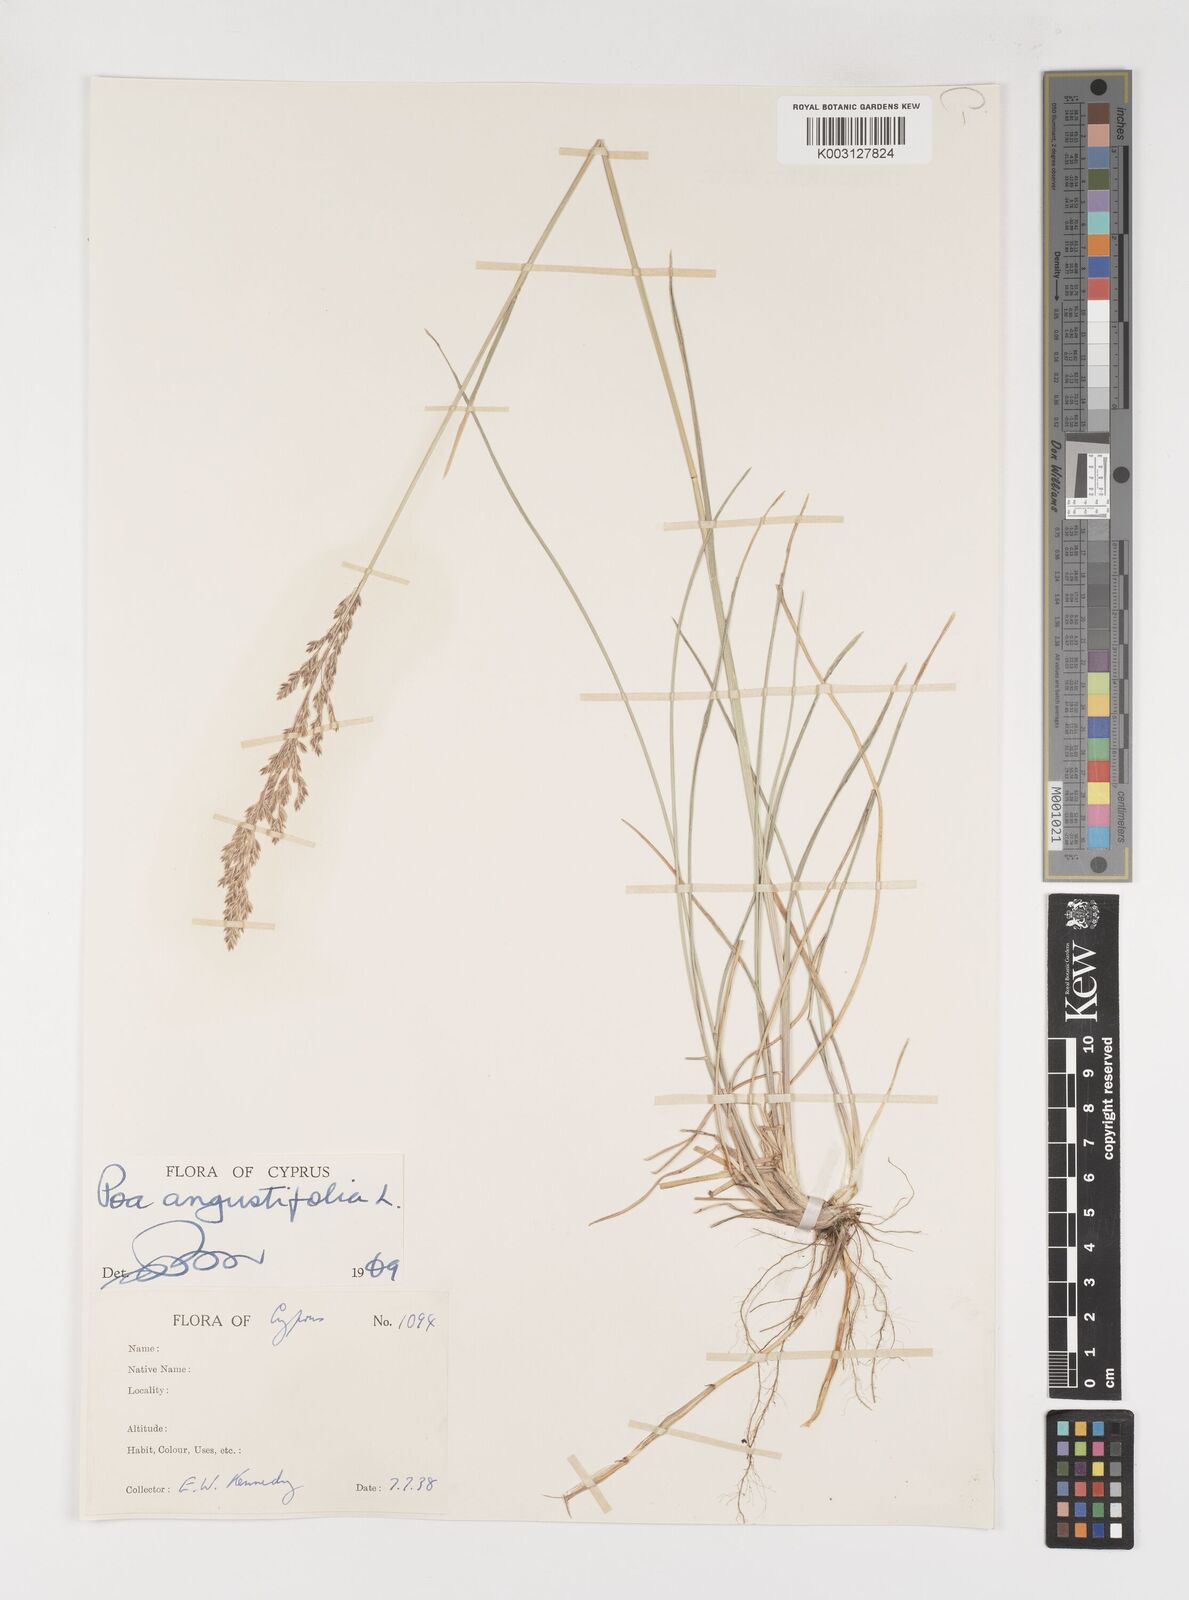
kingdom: Plantae
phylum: Tracheophyta
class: Liliopsida
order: Poales
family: Poaceae
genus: Poa
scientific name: Poa angustifolia
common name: Narrow-leaved meadow-grass
